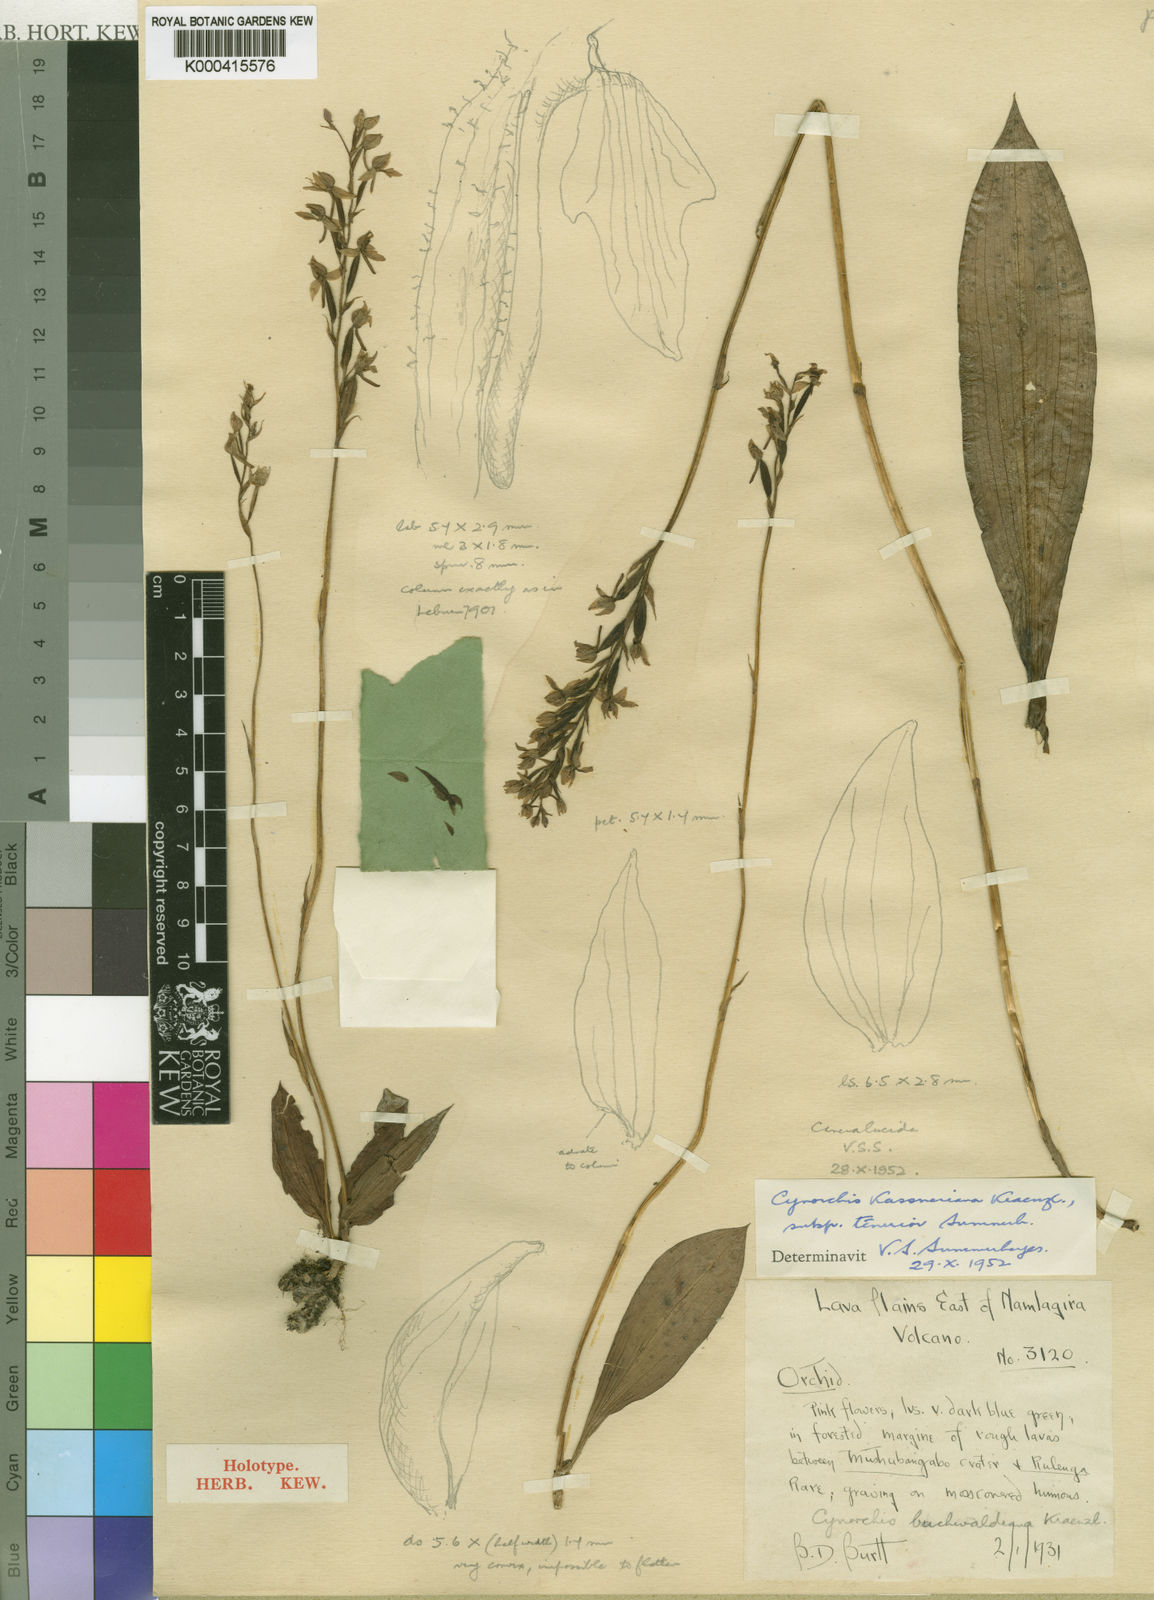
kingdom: Plantae
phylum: Tracheophyta
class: Liliopsida
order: Asparagales
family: Orchidaceae
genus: Cynorkis
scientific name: Cynorkis kassneriana
